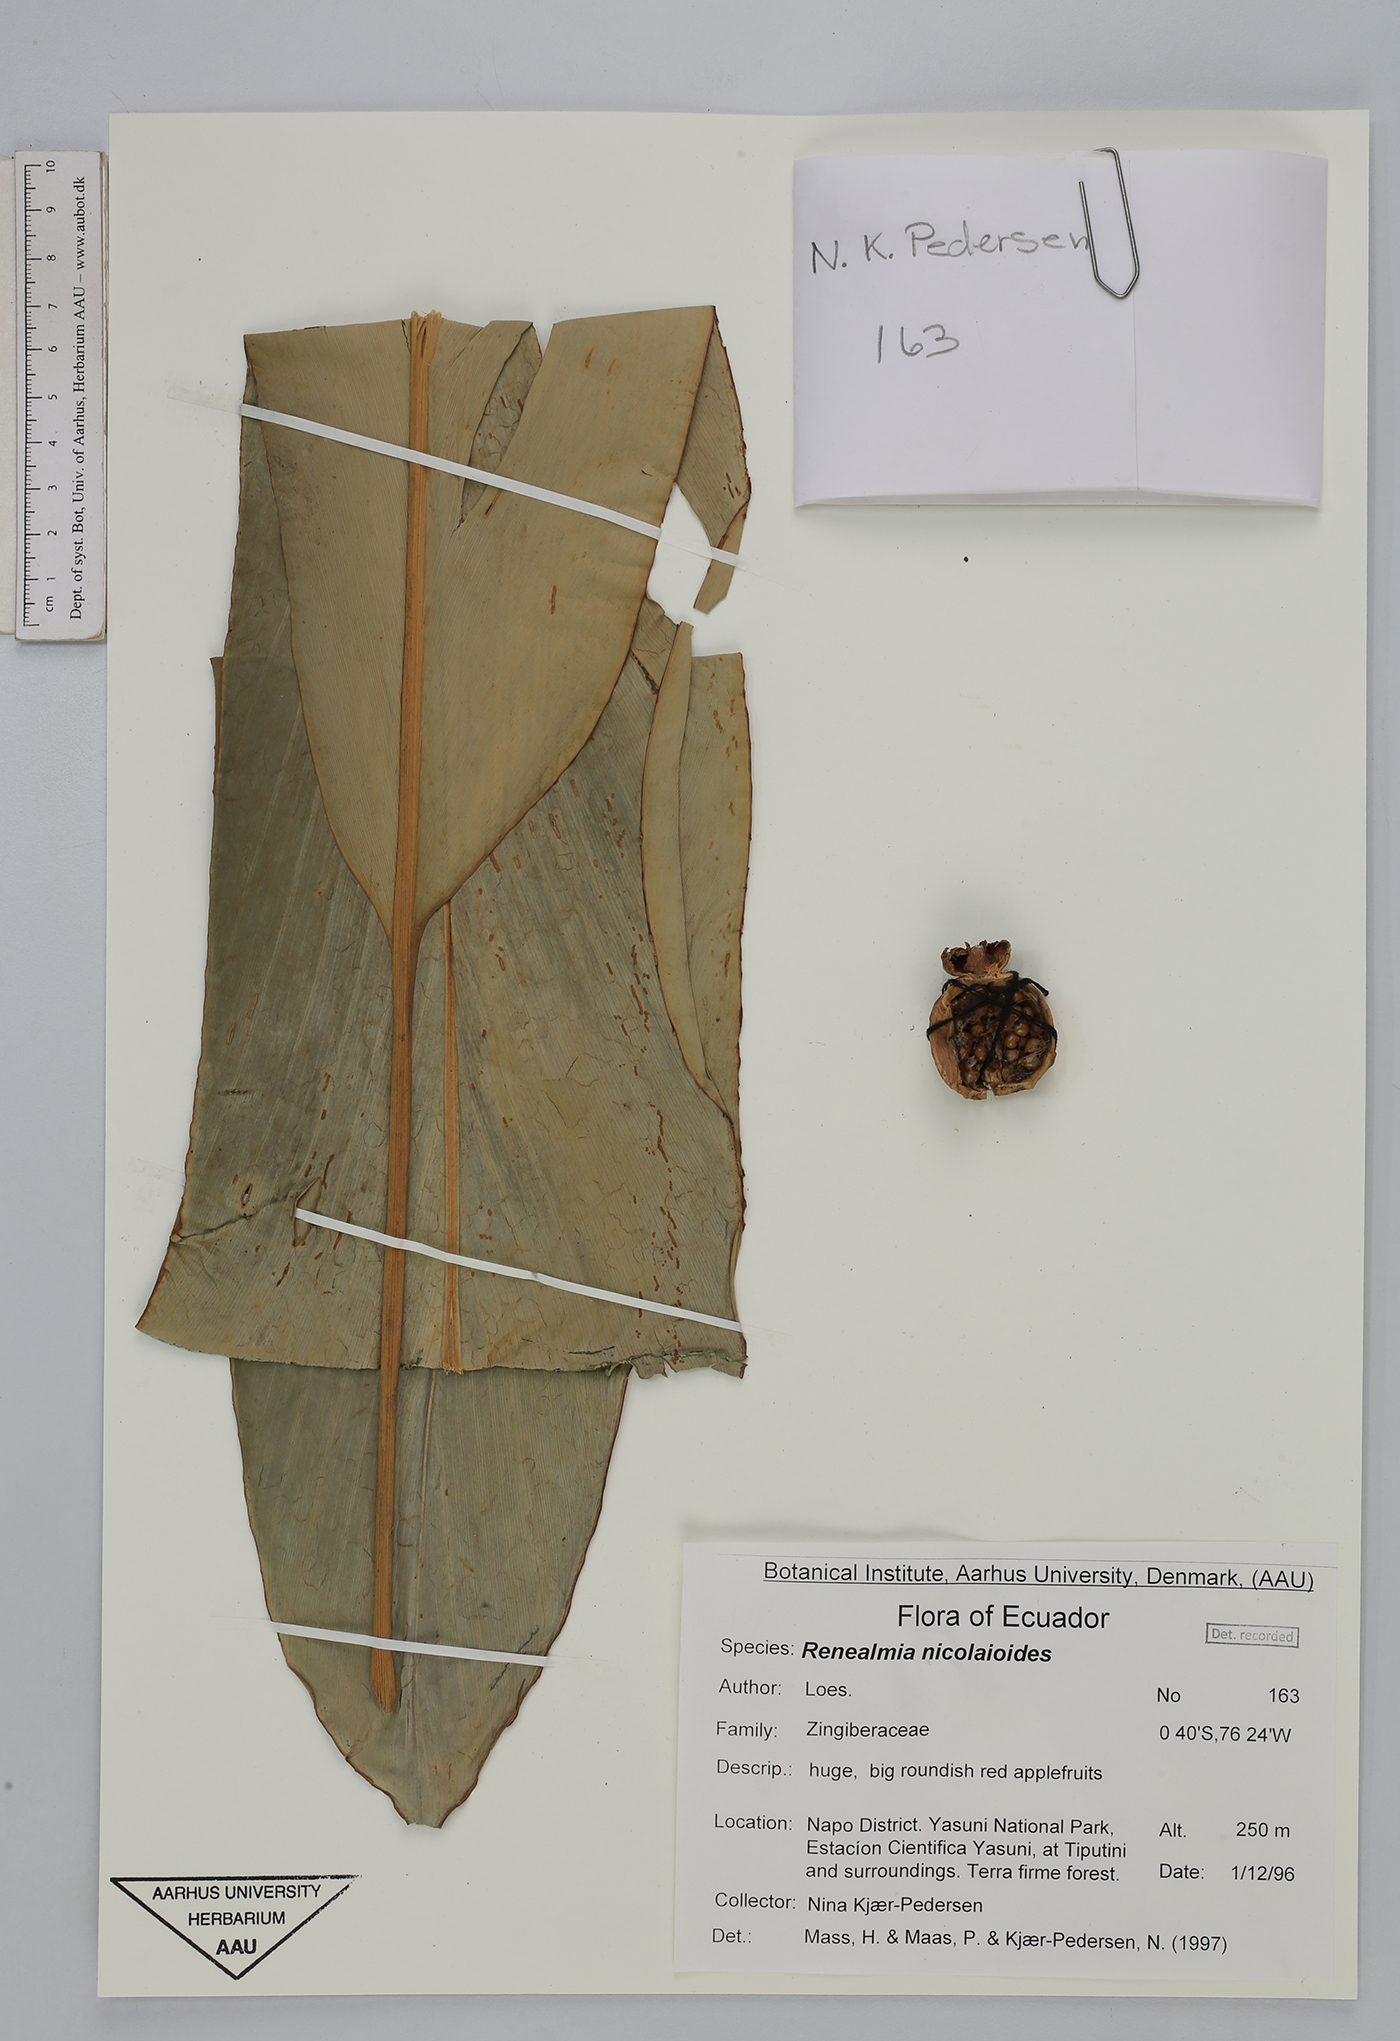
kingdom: Plantae
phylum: Tracheophyta
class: Liliopsida
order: Zingiberales
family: Zingiberaceae
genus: Renealmia
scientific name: Renealmia nicolaioides
